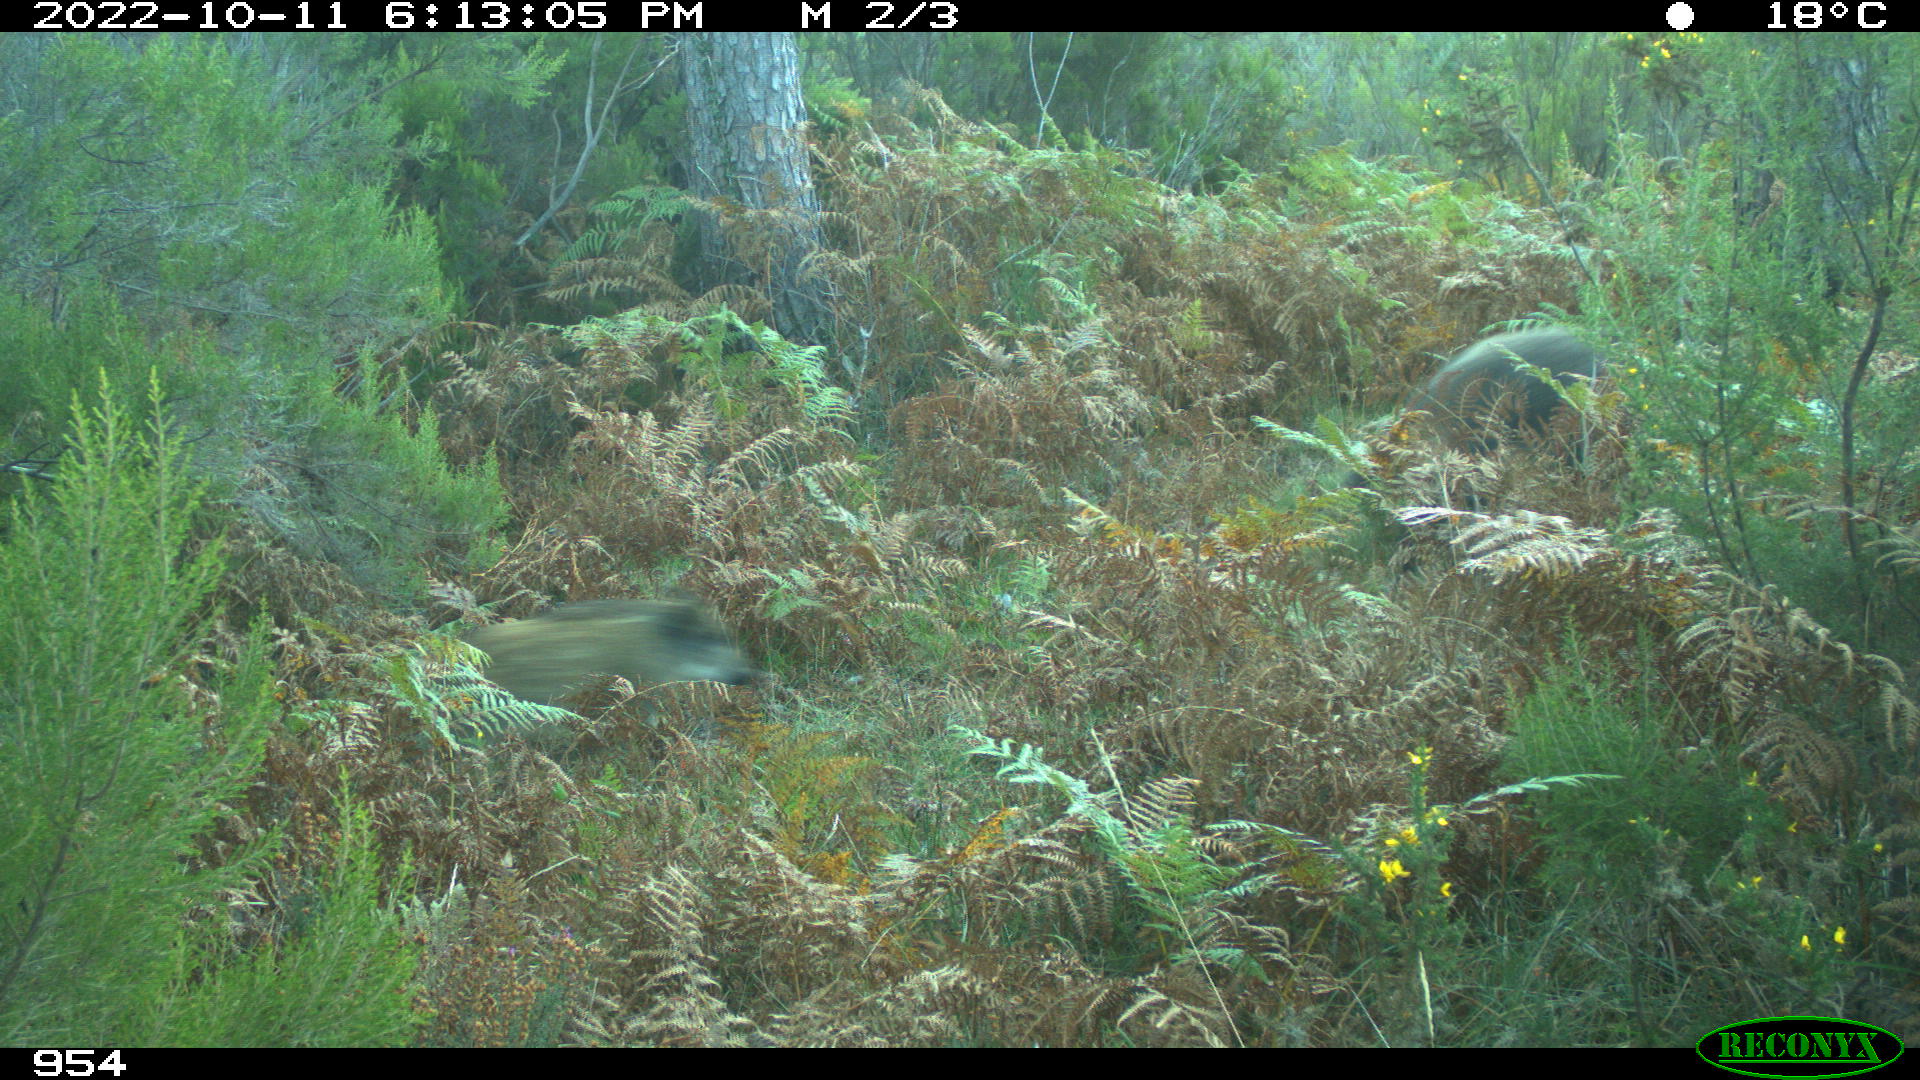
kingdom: Animalia
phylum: Chordata
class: Mammalia
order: Artiodactyla
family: Suidae
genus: Sus
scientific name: Sus scrofa
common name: Wild boar
